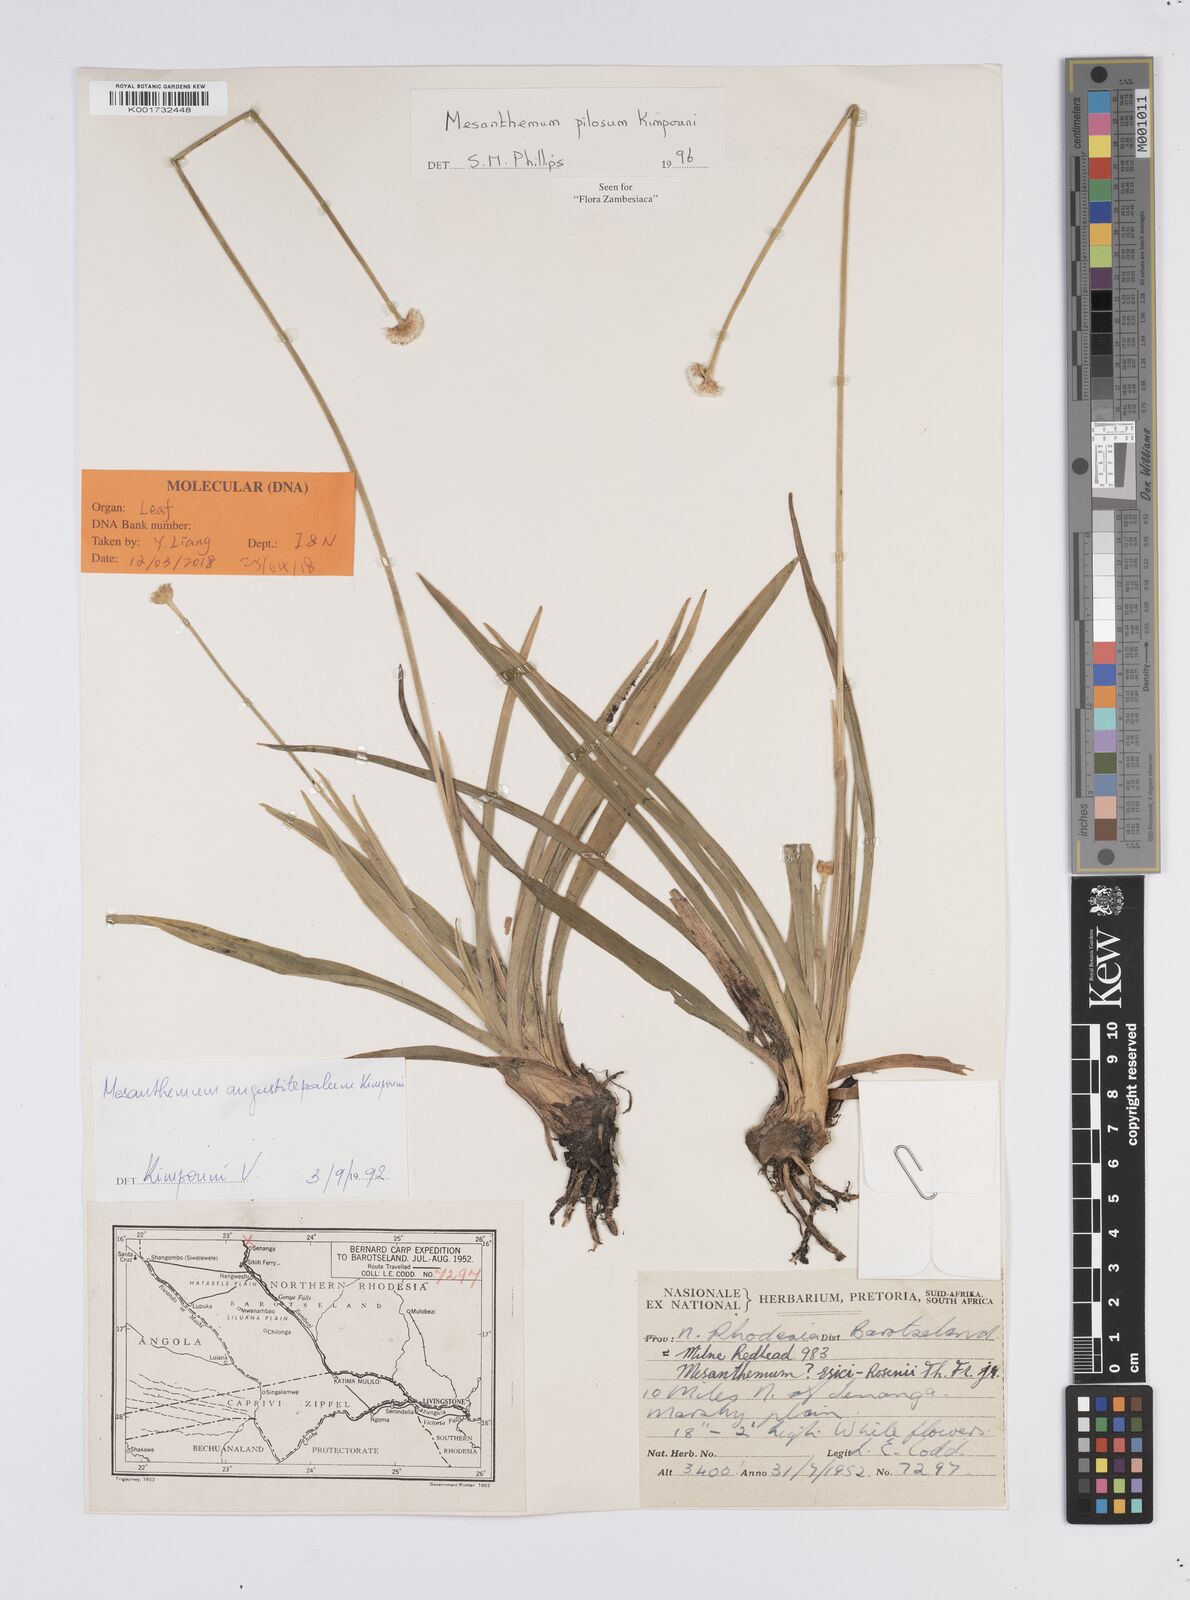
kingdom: Plantae
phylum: Tracheophyta
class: Liliopsida
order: Poales
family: Eriocaulaceae
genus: Mesanthemum
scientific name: Mesanthemum pilosum
